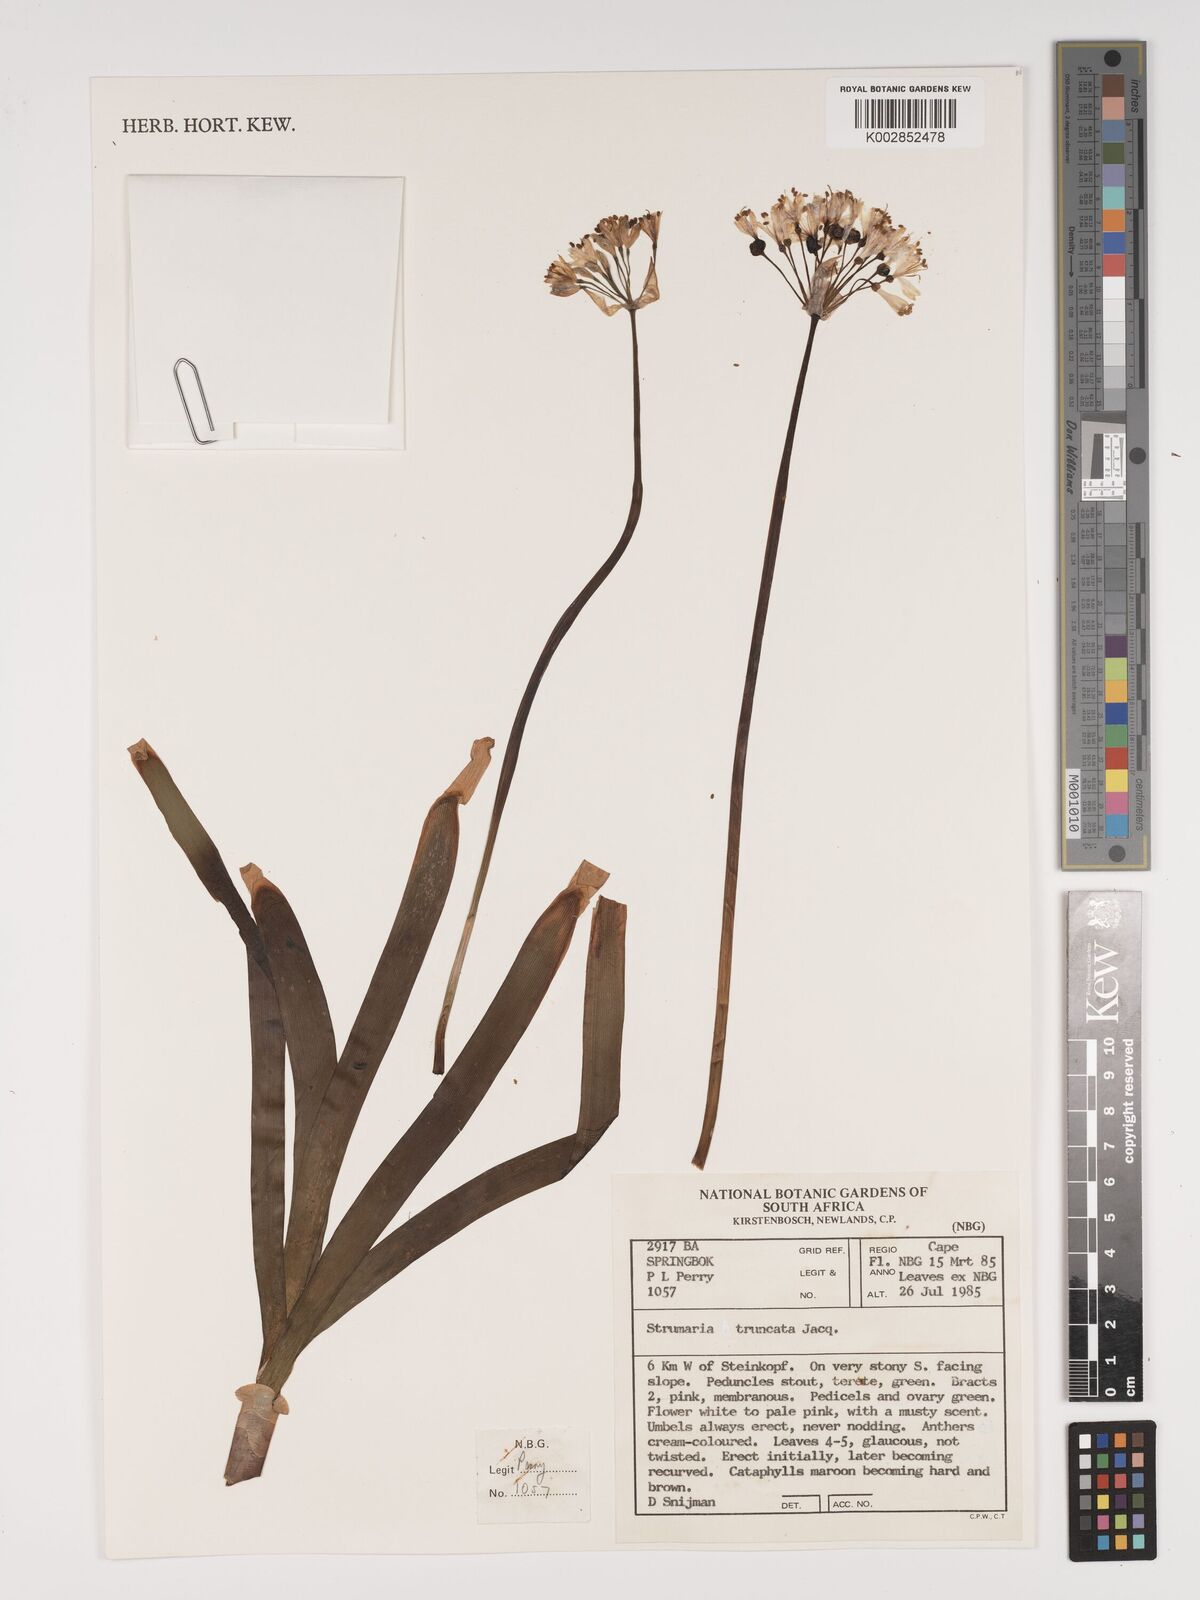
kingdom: Plantae
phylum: Tracheophyta
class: Liliopsida
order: Asparagales
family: Amaryllidaceae
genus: Strumaria
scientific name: Strumaria truncata
